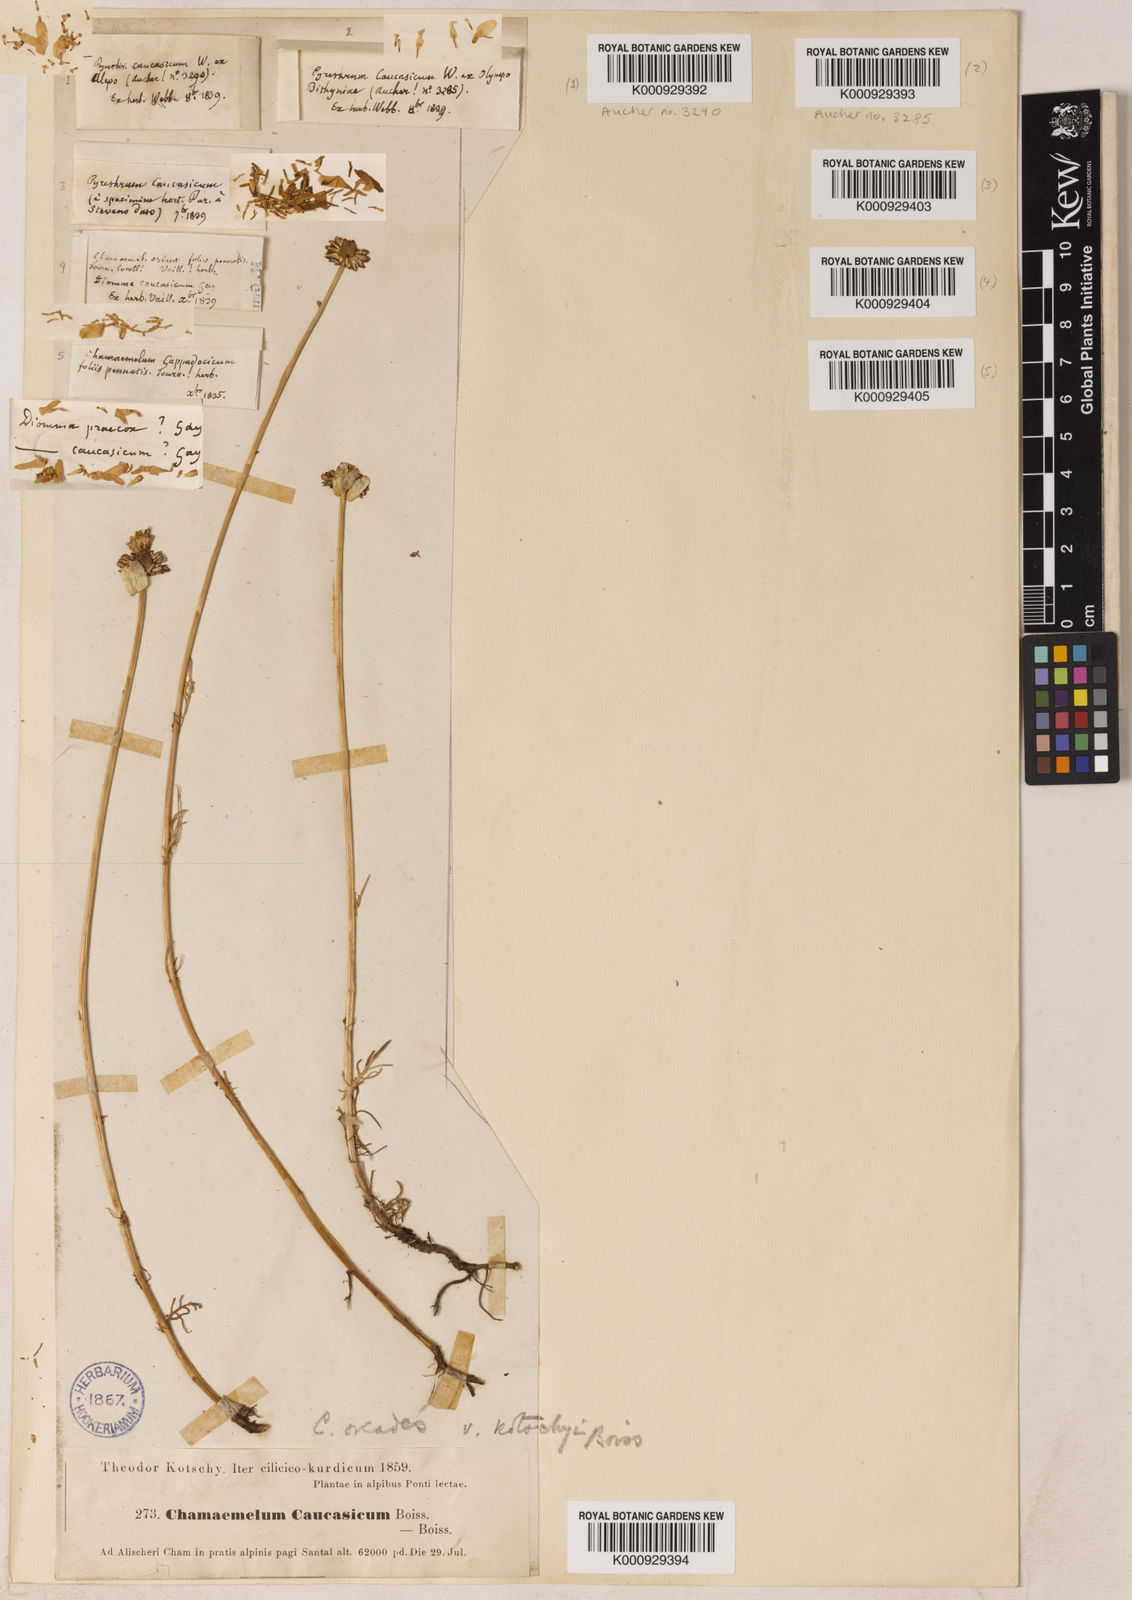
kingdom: Plantae
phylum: Tracheophyta
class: Magnoliopsida
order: Asterales
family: Asteraceae
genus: Tripleurospermum
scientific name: Tripleurospermum caucasicum
